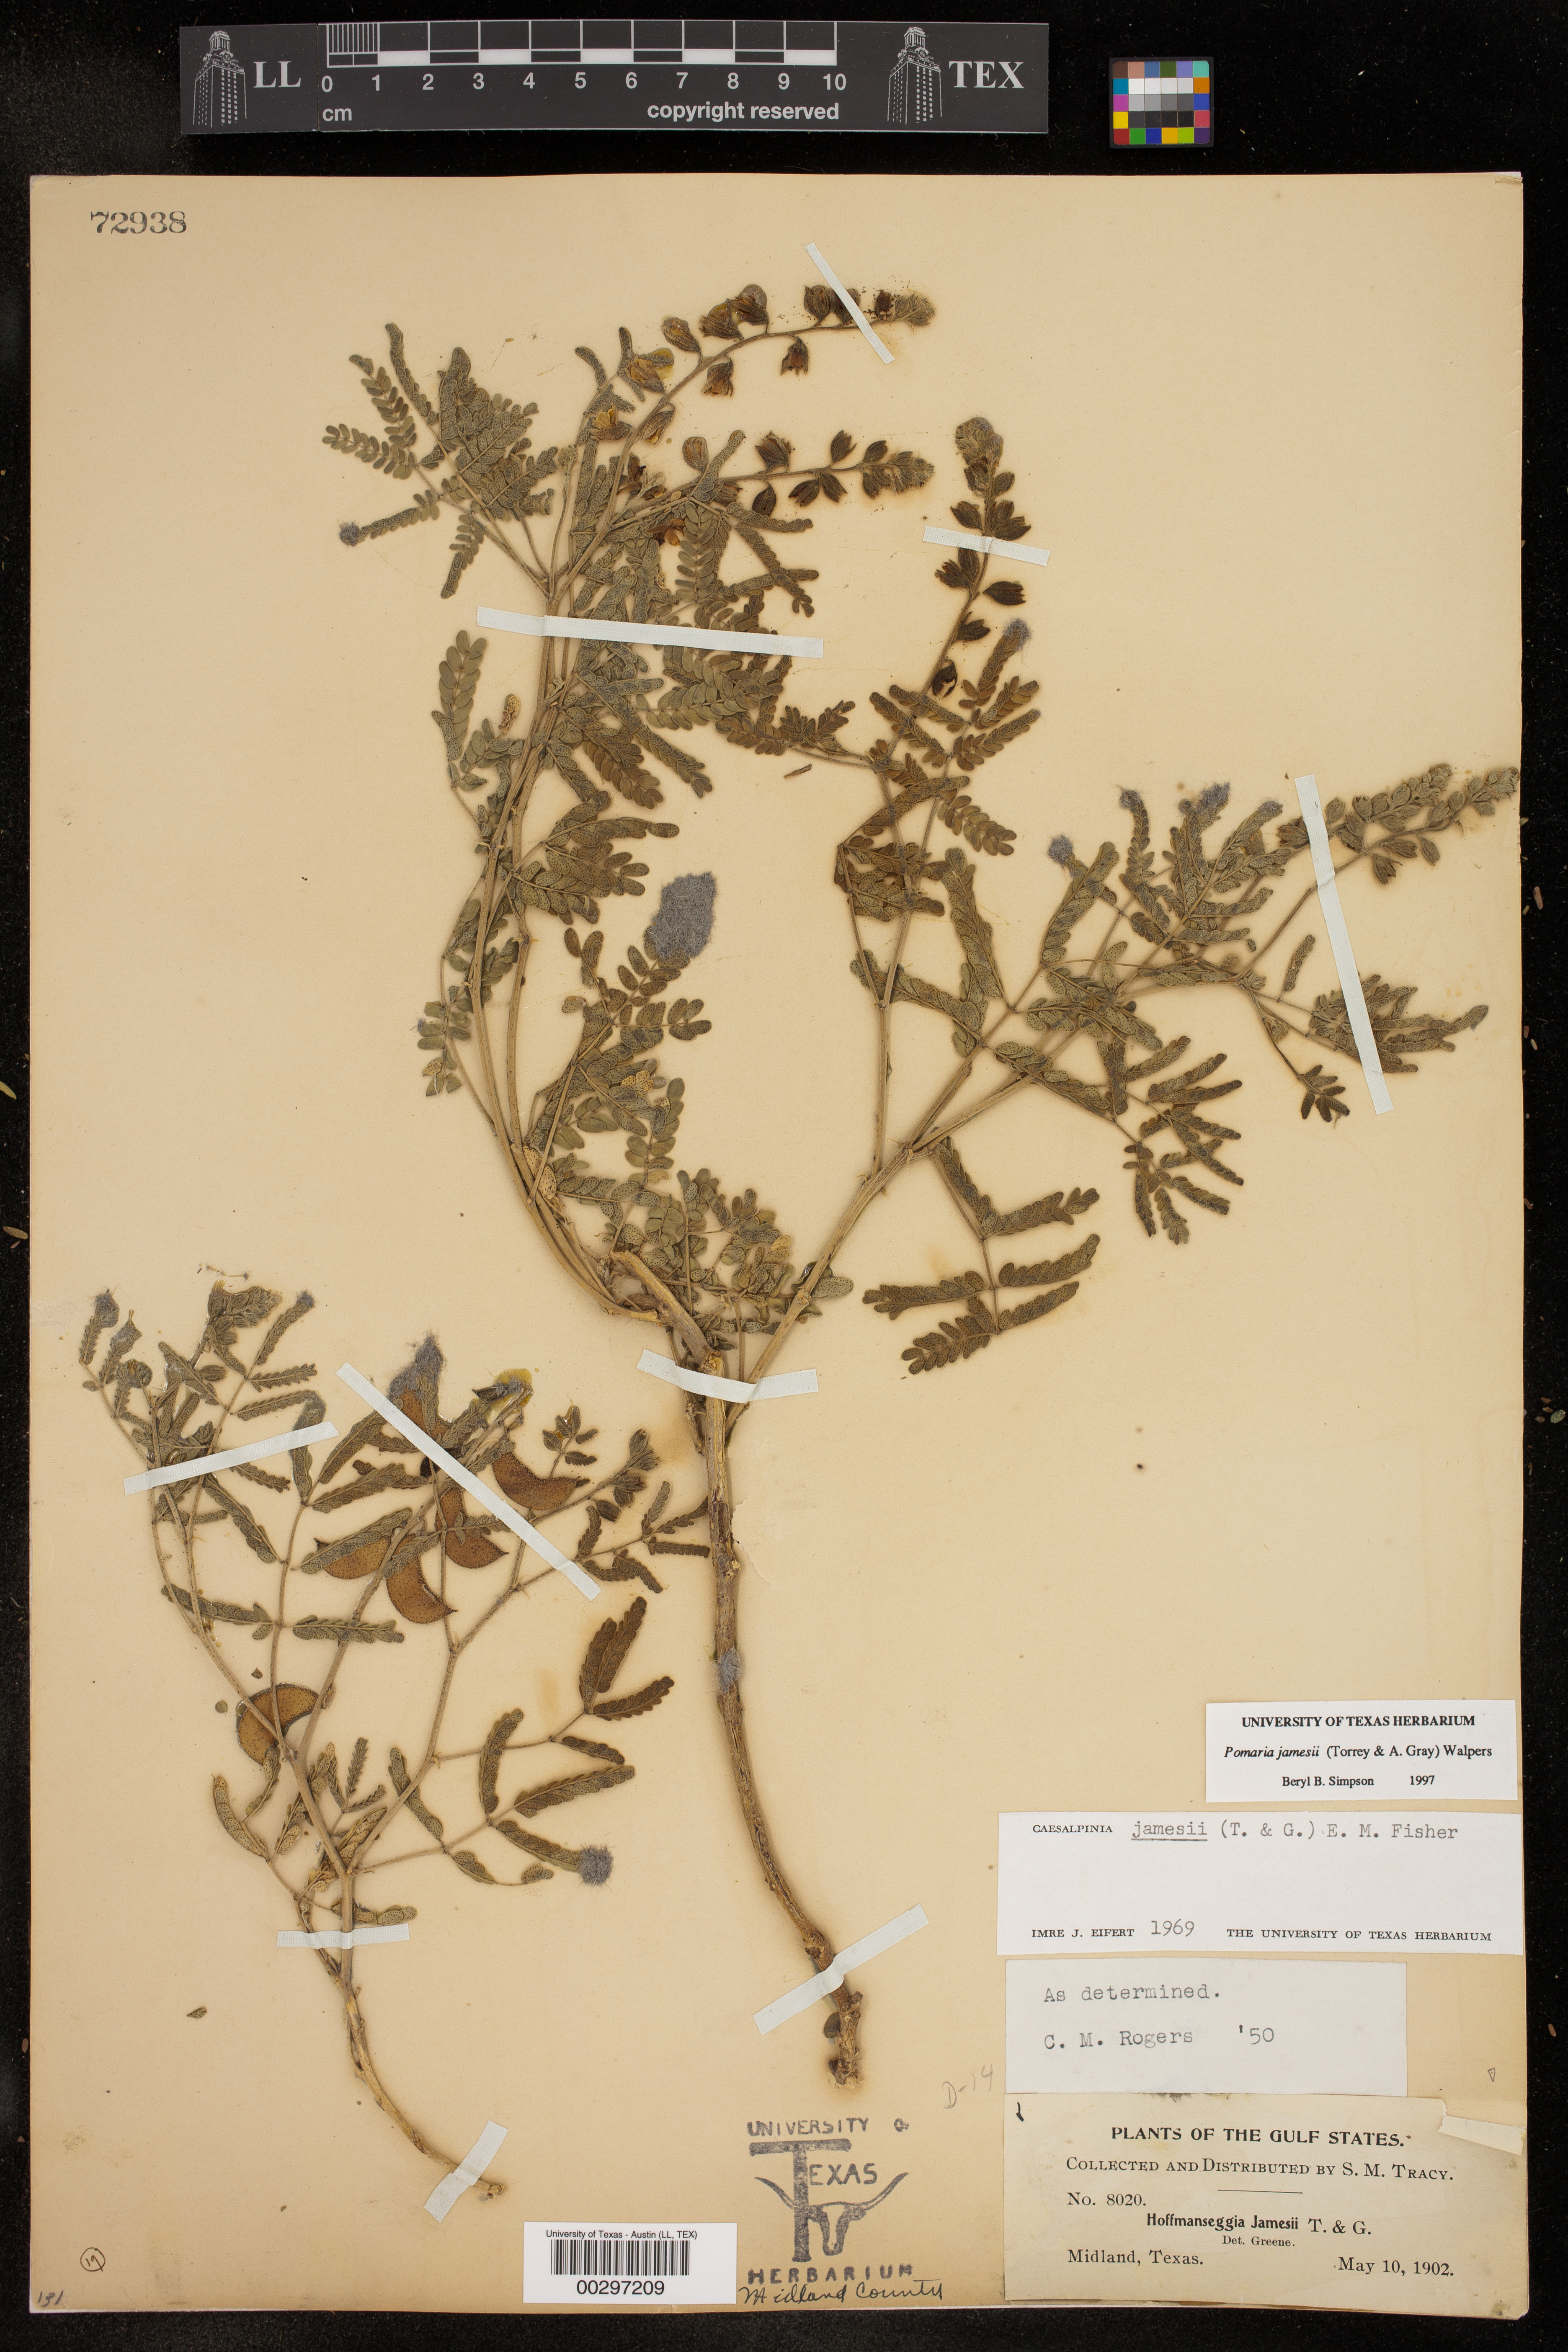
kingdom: Plantae
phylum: Tracheophyta
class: Magnoliopsida
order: Fabales
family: Fabaceae
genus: Pomaria
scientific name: Pomaria jamesii
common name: James' caesalpinia
